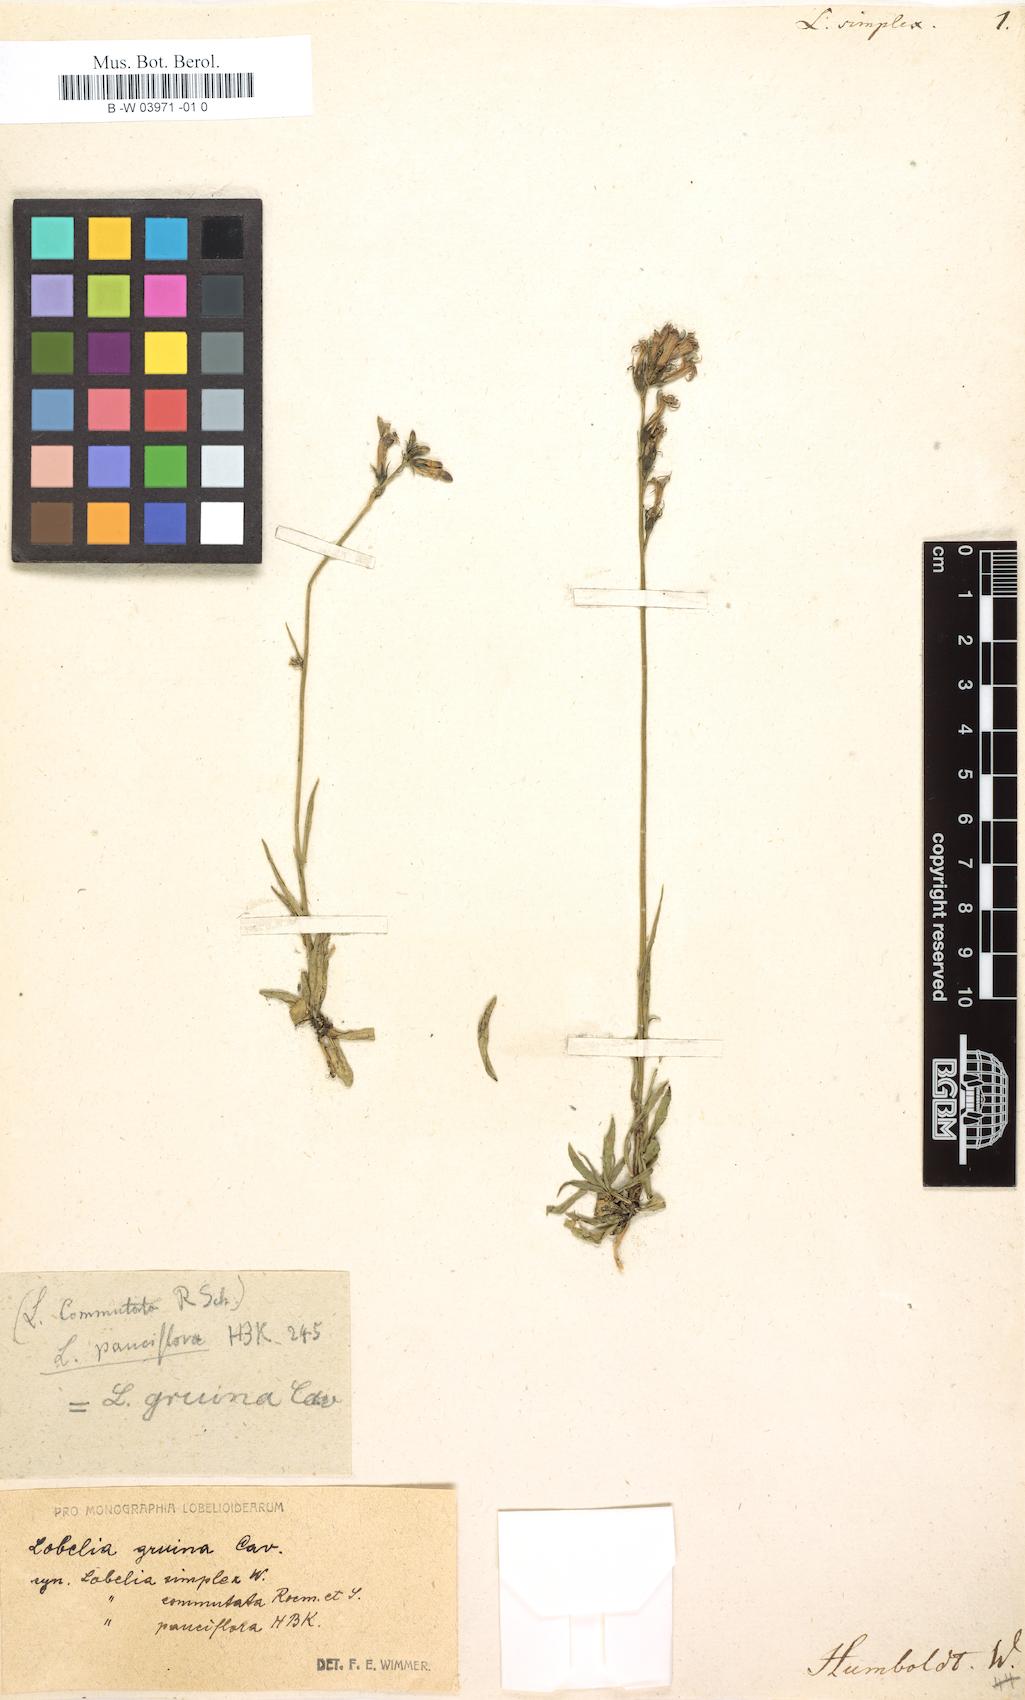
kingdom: Plantae
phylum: Tracheophyta
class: Magnoliopsida
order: Asterales
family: Campanulaceae
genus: Lobelia
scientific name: Lobelia simplex
